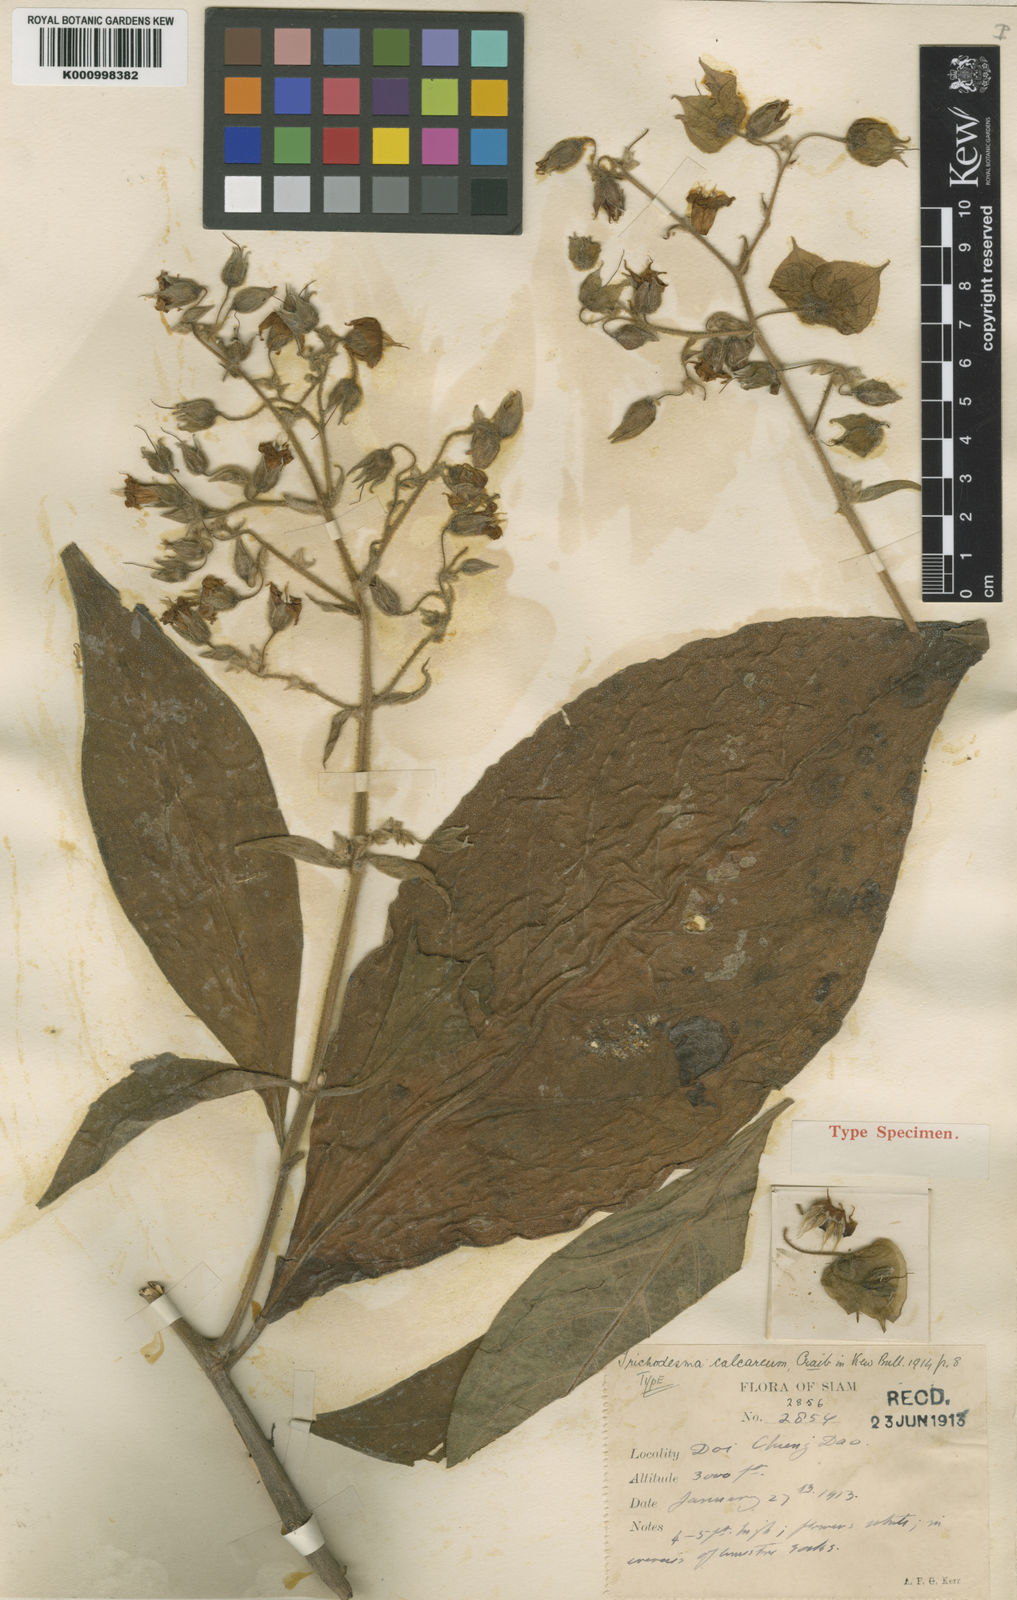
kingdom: Plantae
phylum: Tracheophyta
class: Magnoliopsida
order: Boraginales
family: Boraginaceae
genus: Trichodesma
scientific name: Trichodesma khasianum
